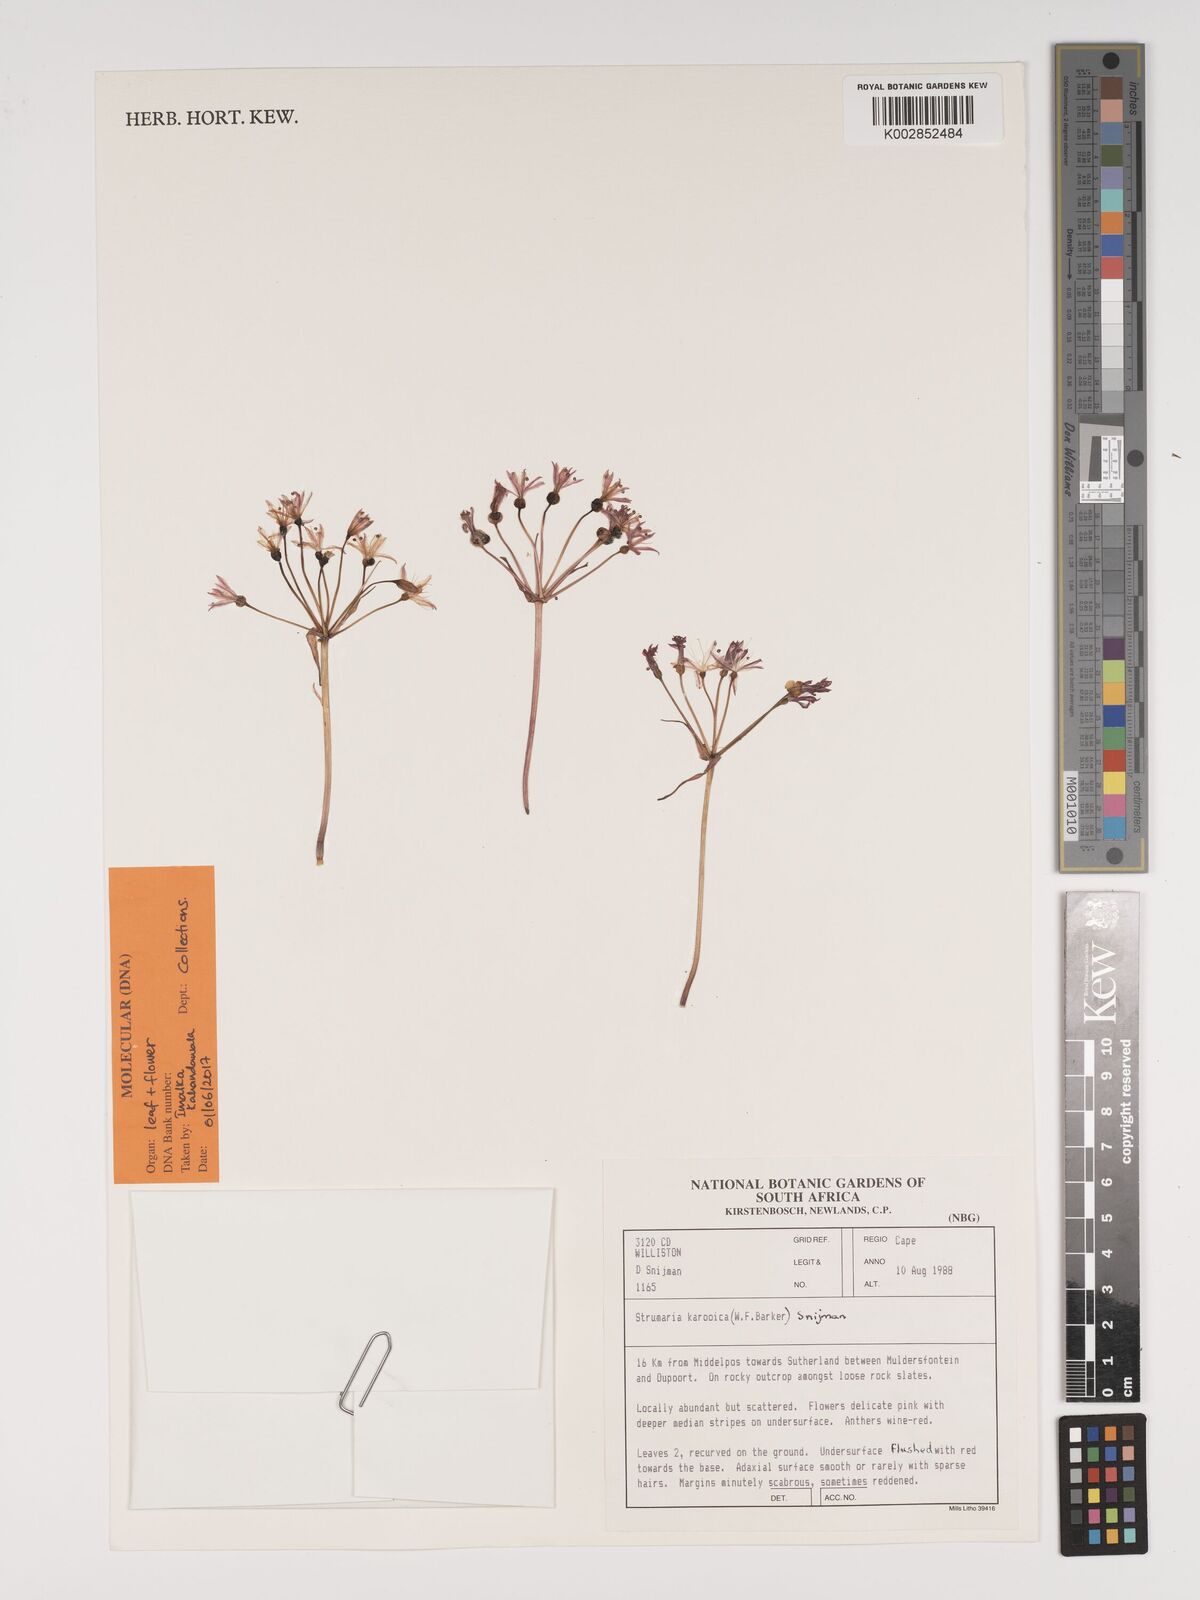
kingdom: Plantae
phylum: Tracheophyta
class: Liliopsida
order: Asparagales
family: Amaryllidaceae
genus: Strumaria
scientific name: Strumaria
